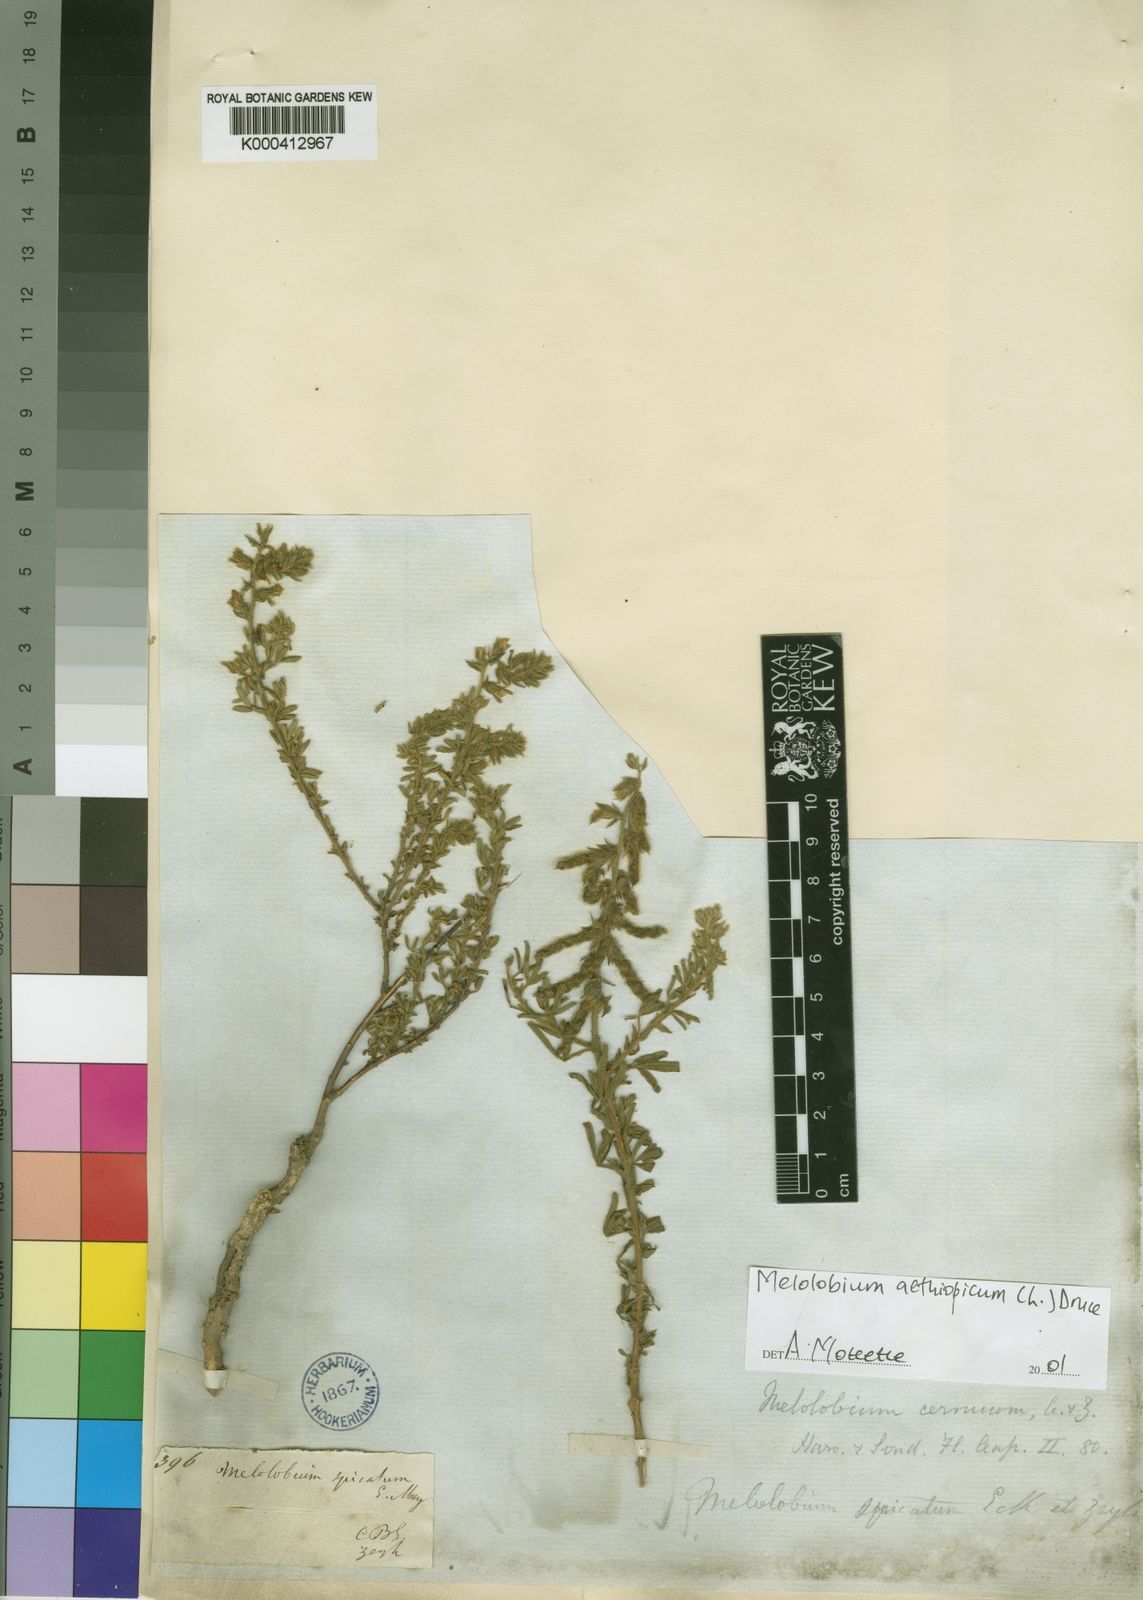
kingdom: Plantae
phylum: Tracheophyta
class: Magnoliopsida
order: Fabales
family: Fabaceae
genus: Melolobium
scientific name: Melolobium aethiopicum
